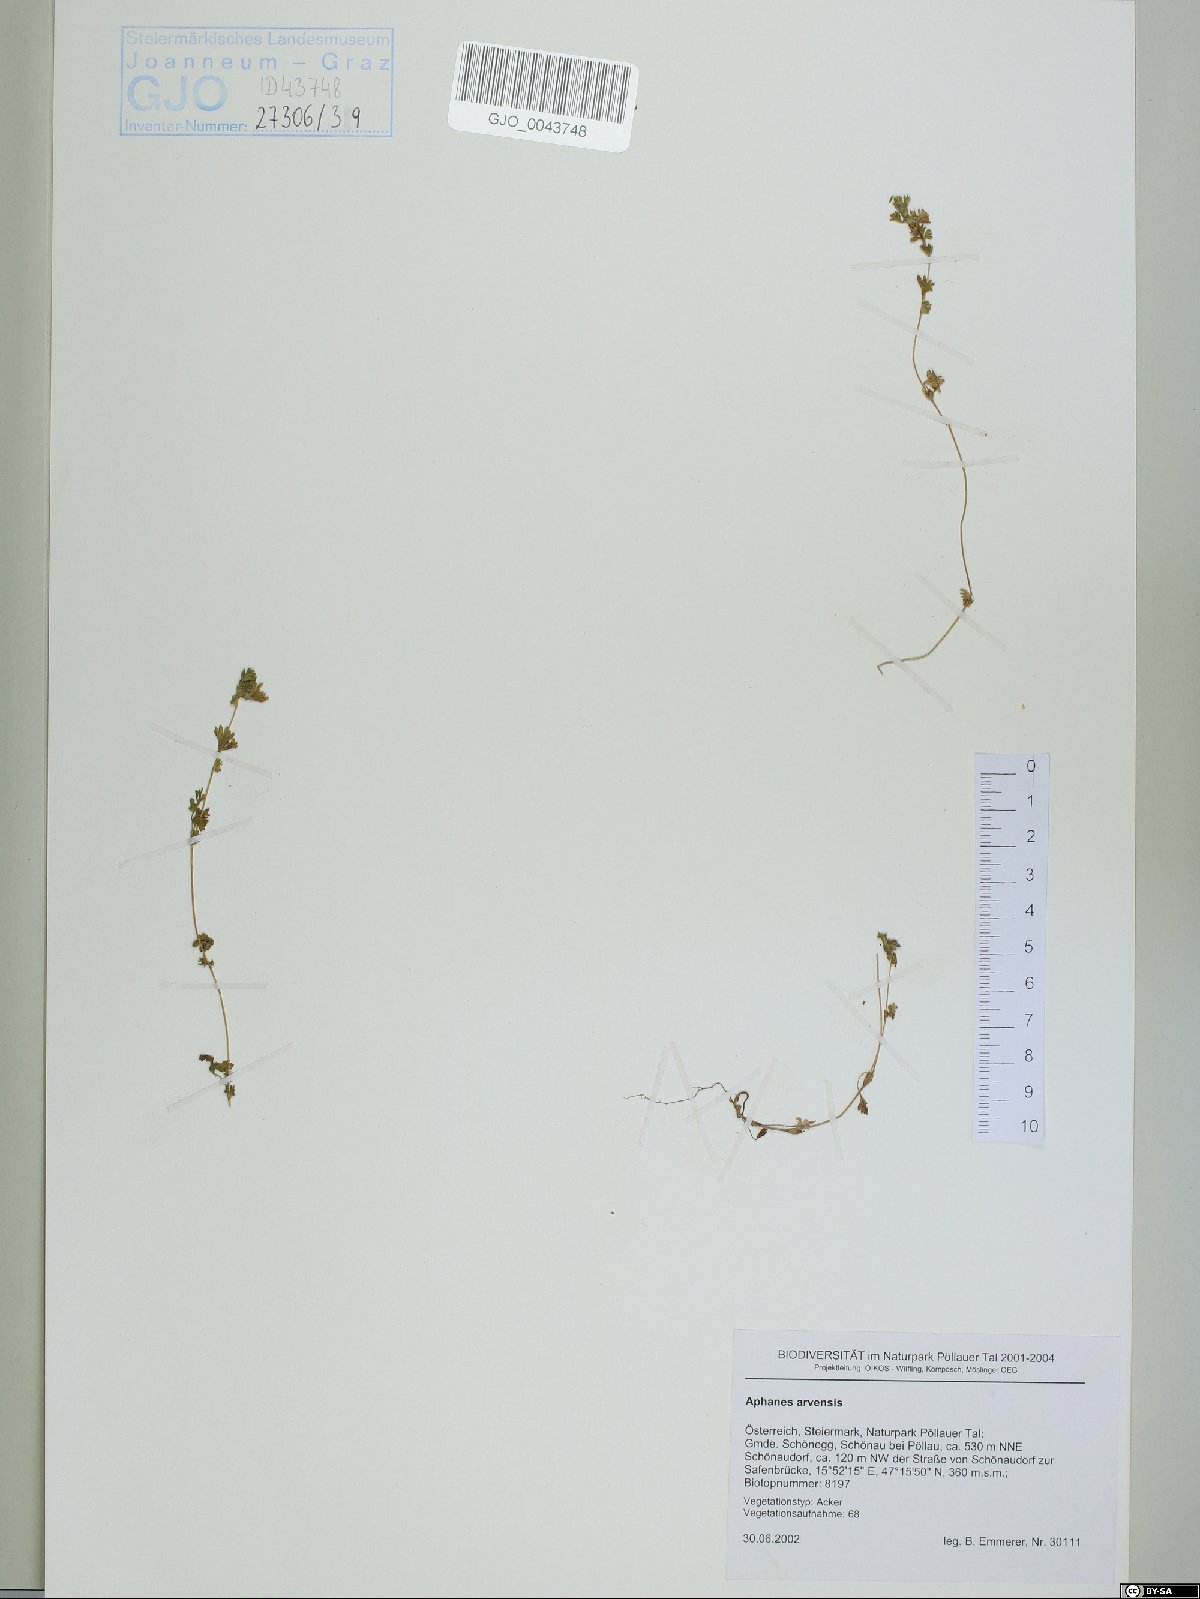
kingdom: Plantae
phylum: Tracheophyta
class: Magnoliopsida
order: Rosales
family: Rosaceae
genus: Aphanes
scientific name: Aphanes arvensis
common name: Parsley-piert
